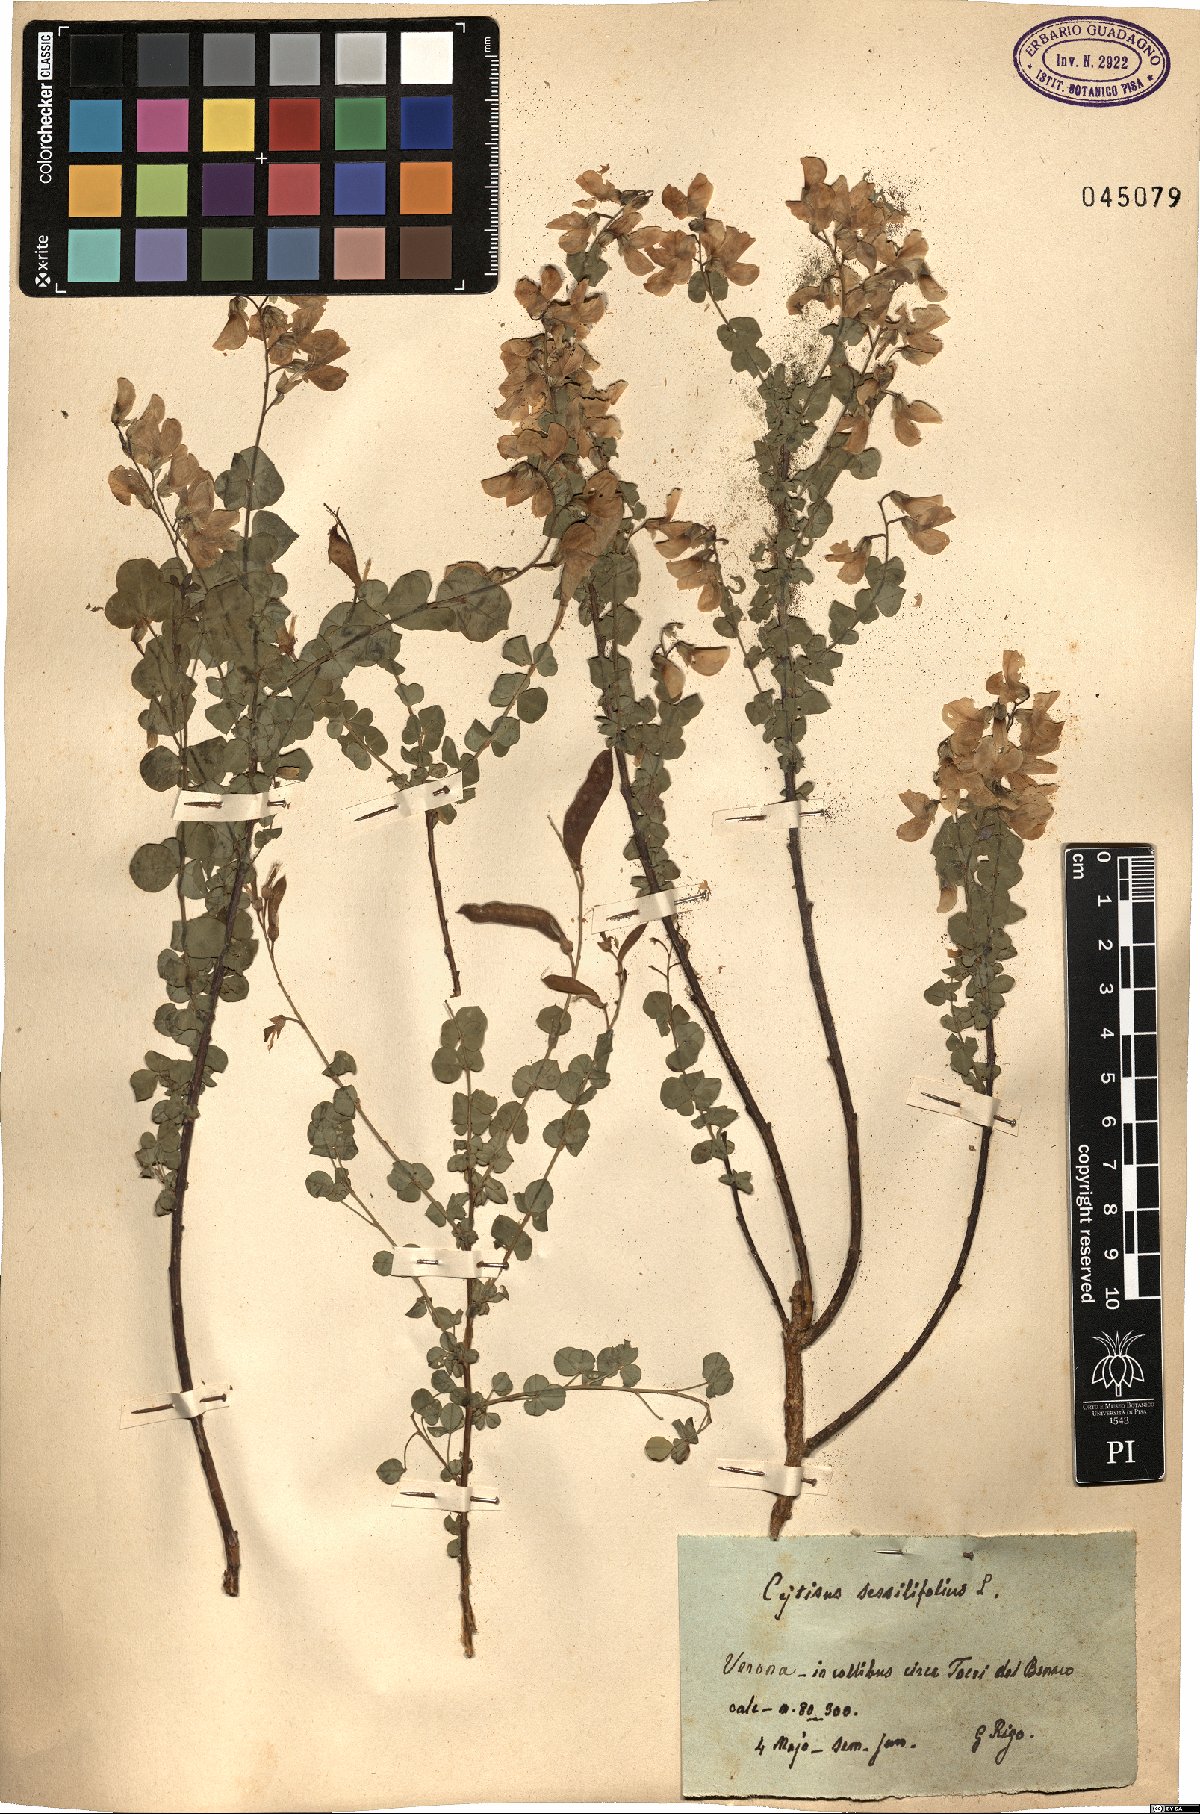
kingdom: Plantae
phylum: Tracheophyta
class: Magnoliopsida
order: Fabales
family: Fabaceae
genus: Cytisophyllum
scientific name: Cytisophyllum sessilifolium
